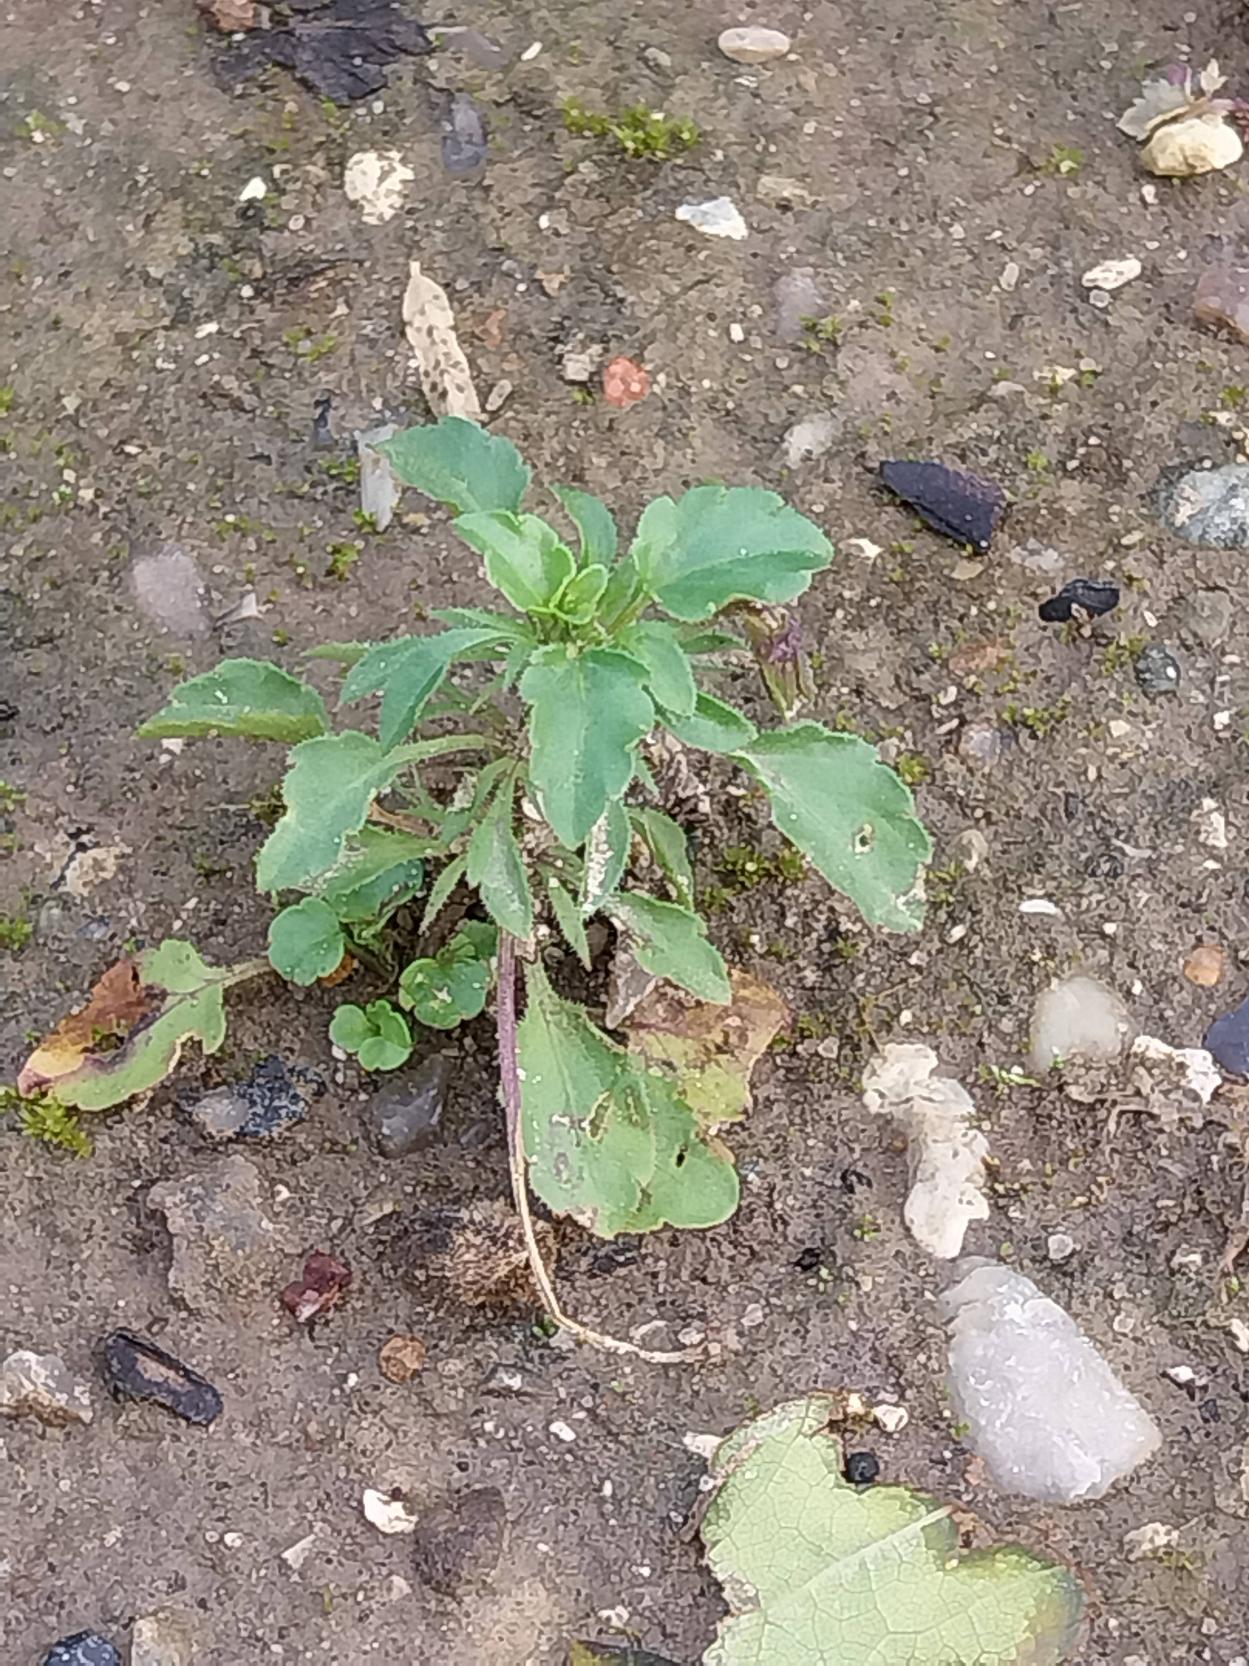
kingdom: Plantae
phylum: Tracheophyta
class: Magnoliopsida
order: Malpighiales
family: Violaceae
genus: Viola
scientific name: Viola arvensis
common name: Ager-stedmoderblomst
